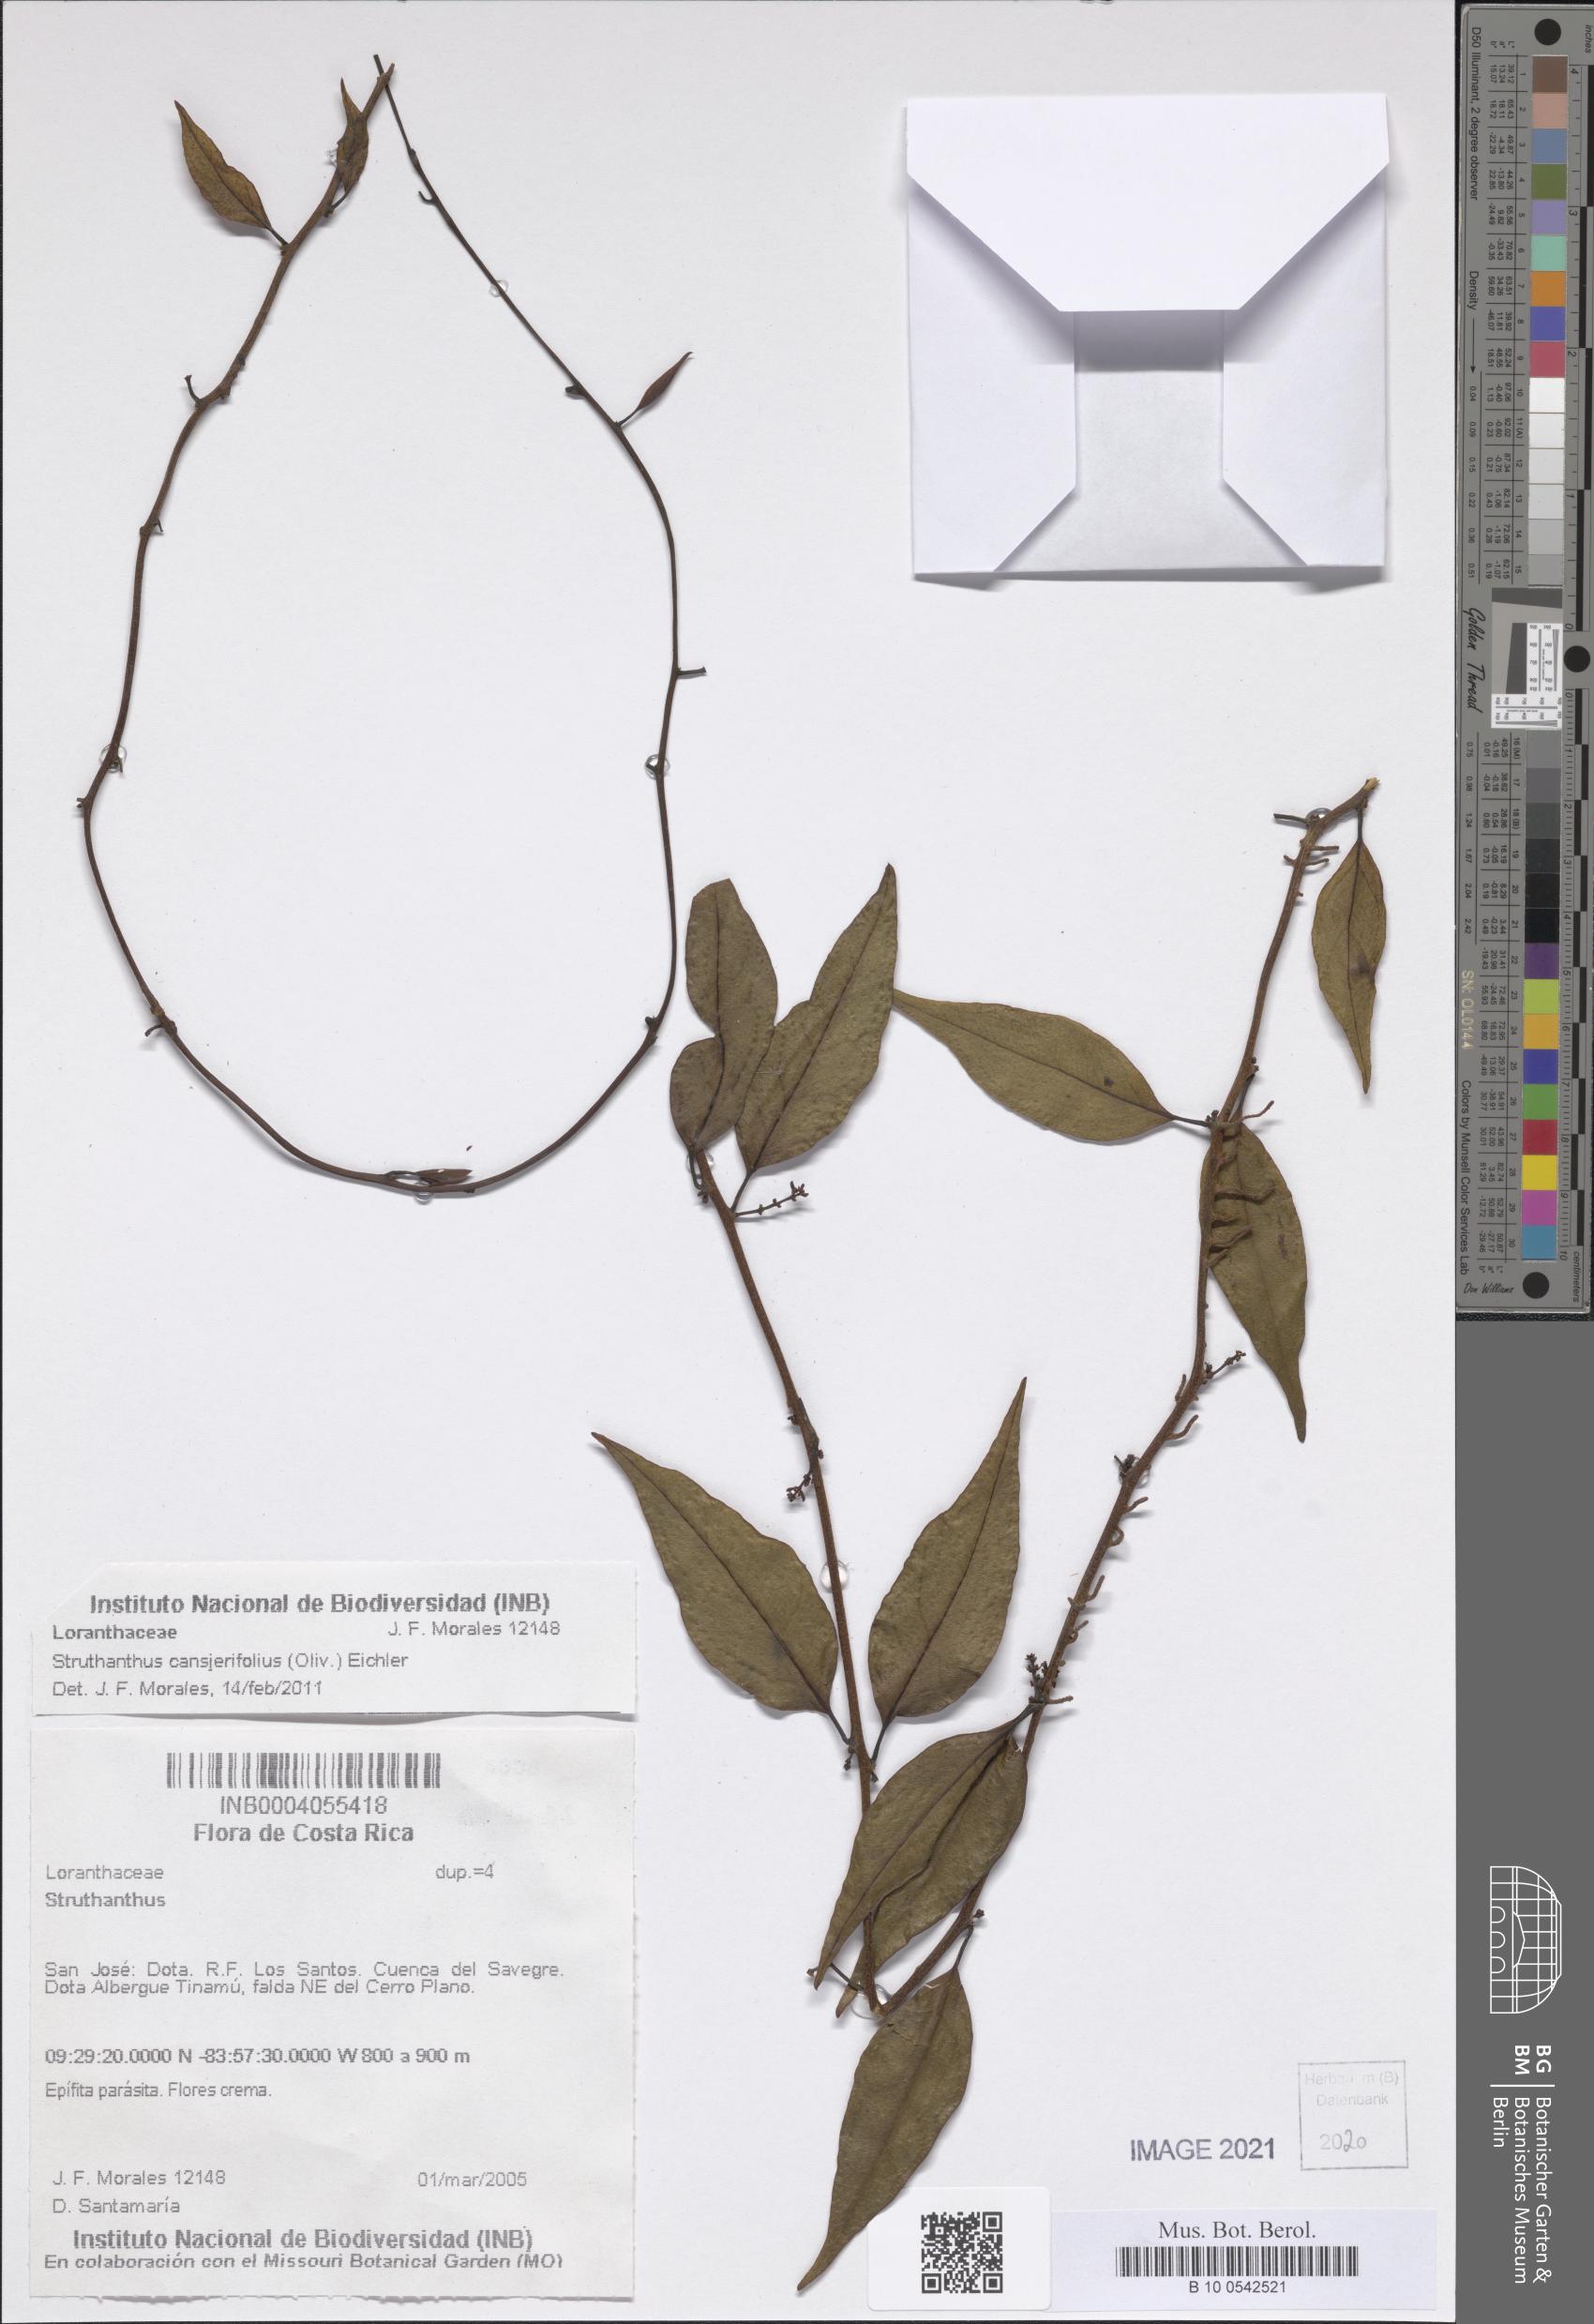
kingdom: Plantae
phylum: Tracheophyta
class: Magnoliopsida
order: Santalales
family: Loranthaceae
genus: Struthanthus
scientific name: Struthanthus cansjerifolius
